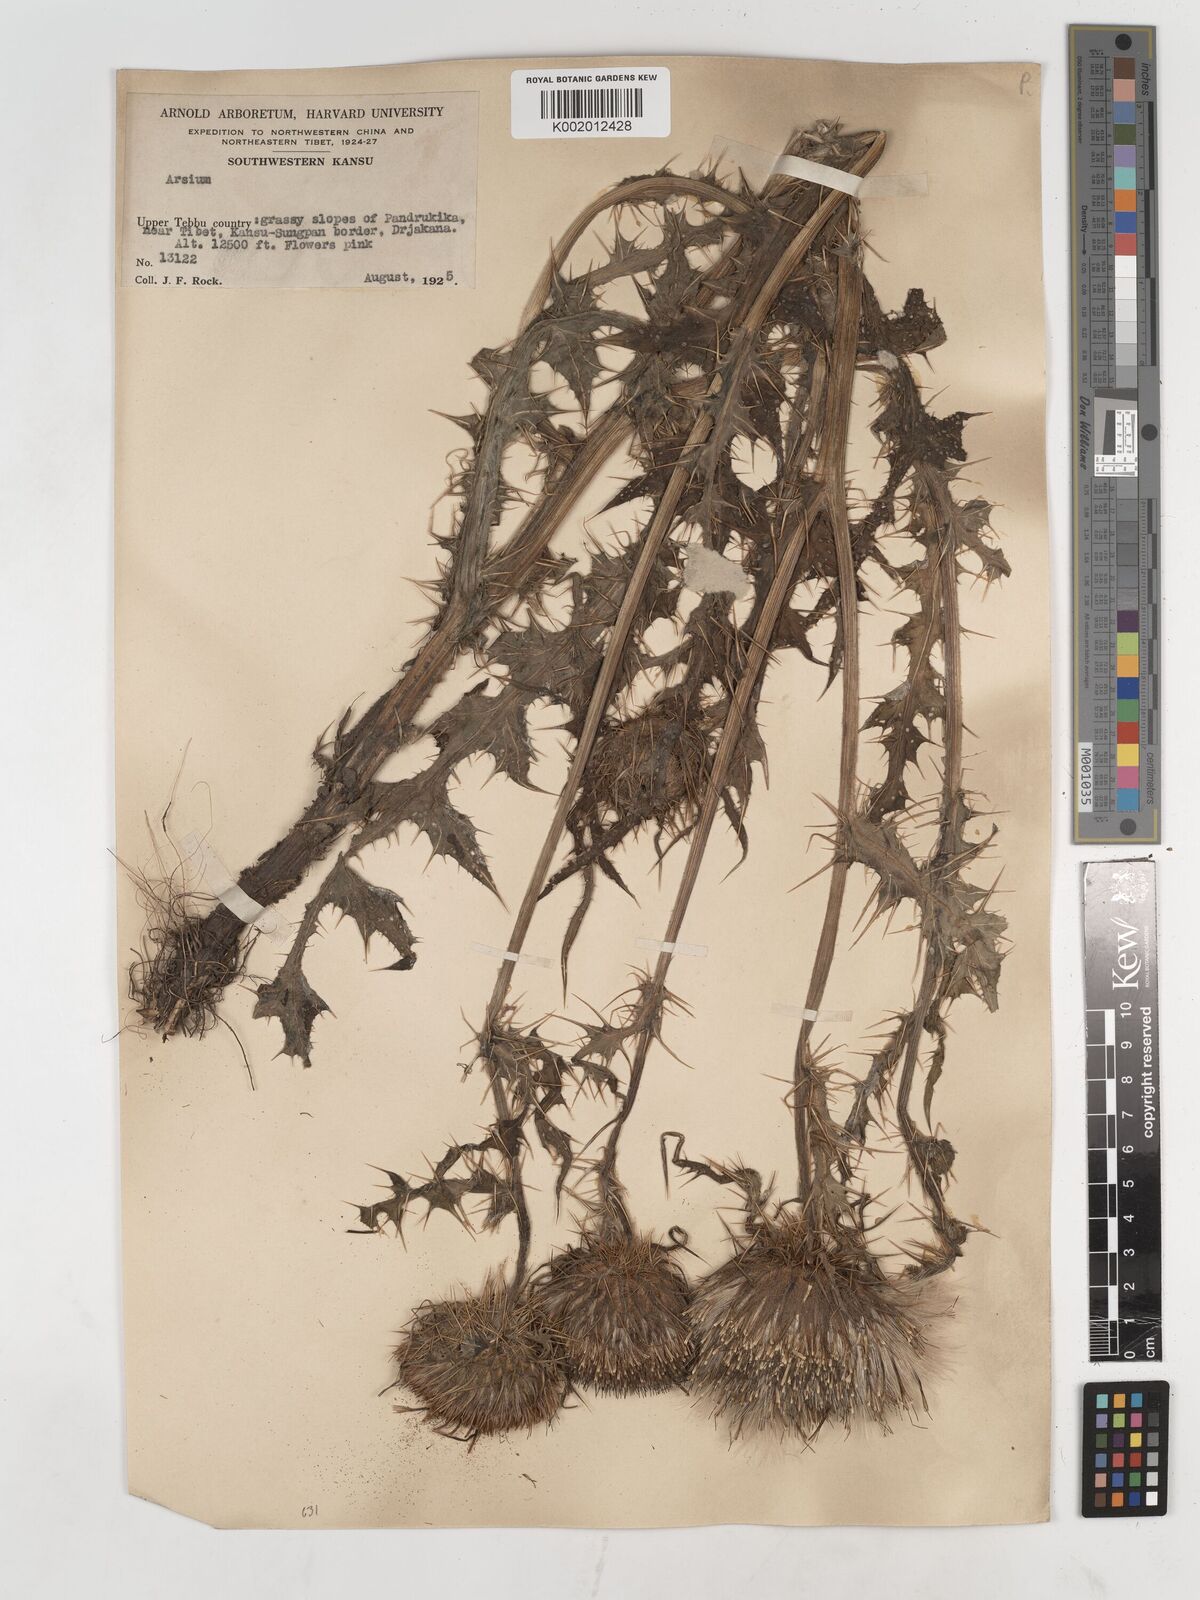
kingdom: Plantae
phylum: Tracheophyta
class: Magnoliopsida
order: Asterales
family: Asteraceae
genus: Cirsium
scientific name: Cirsium
